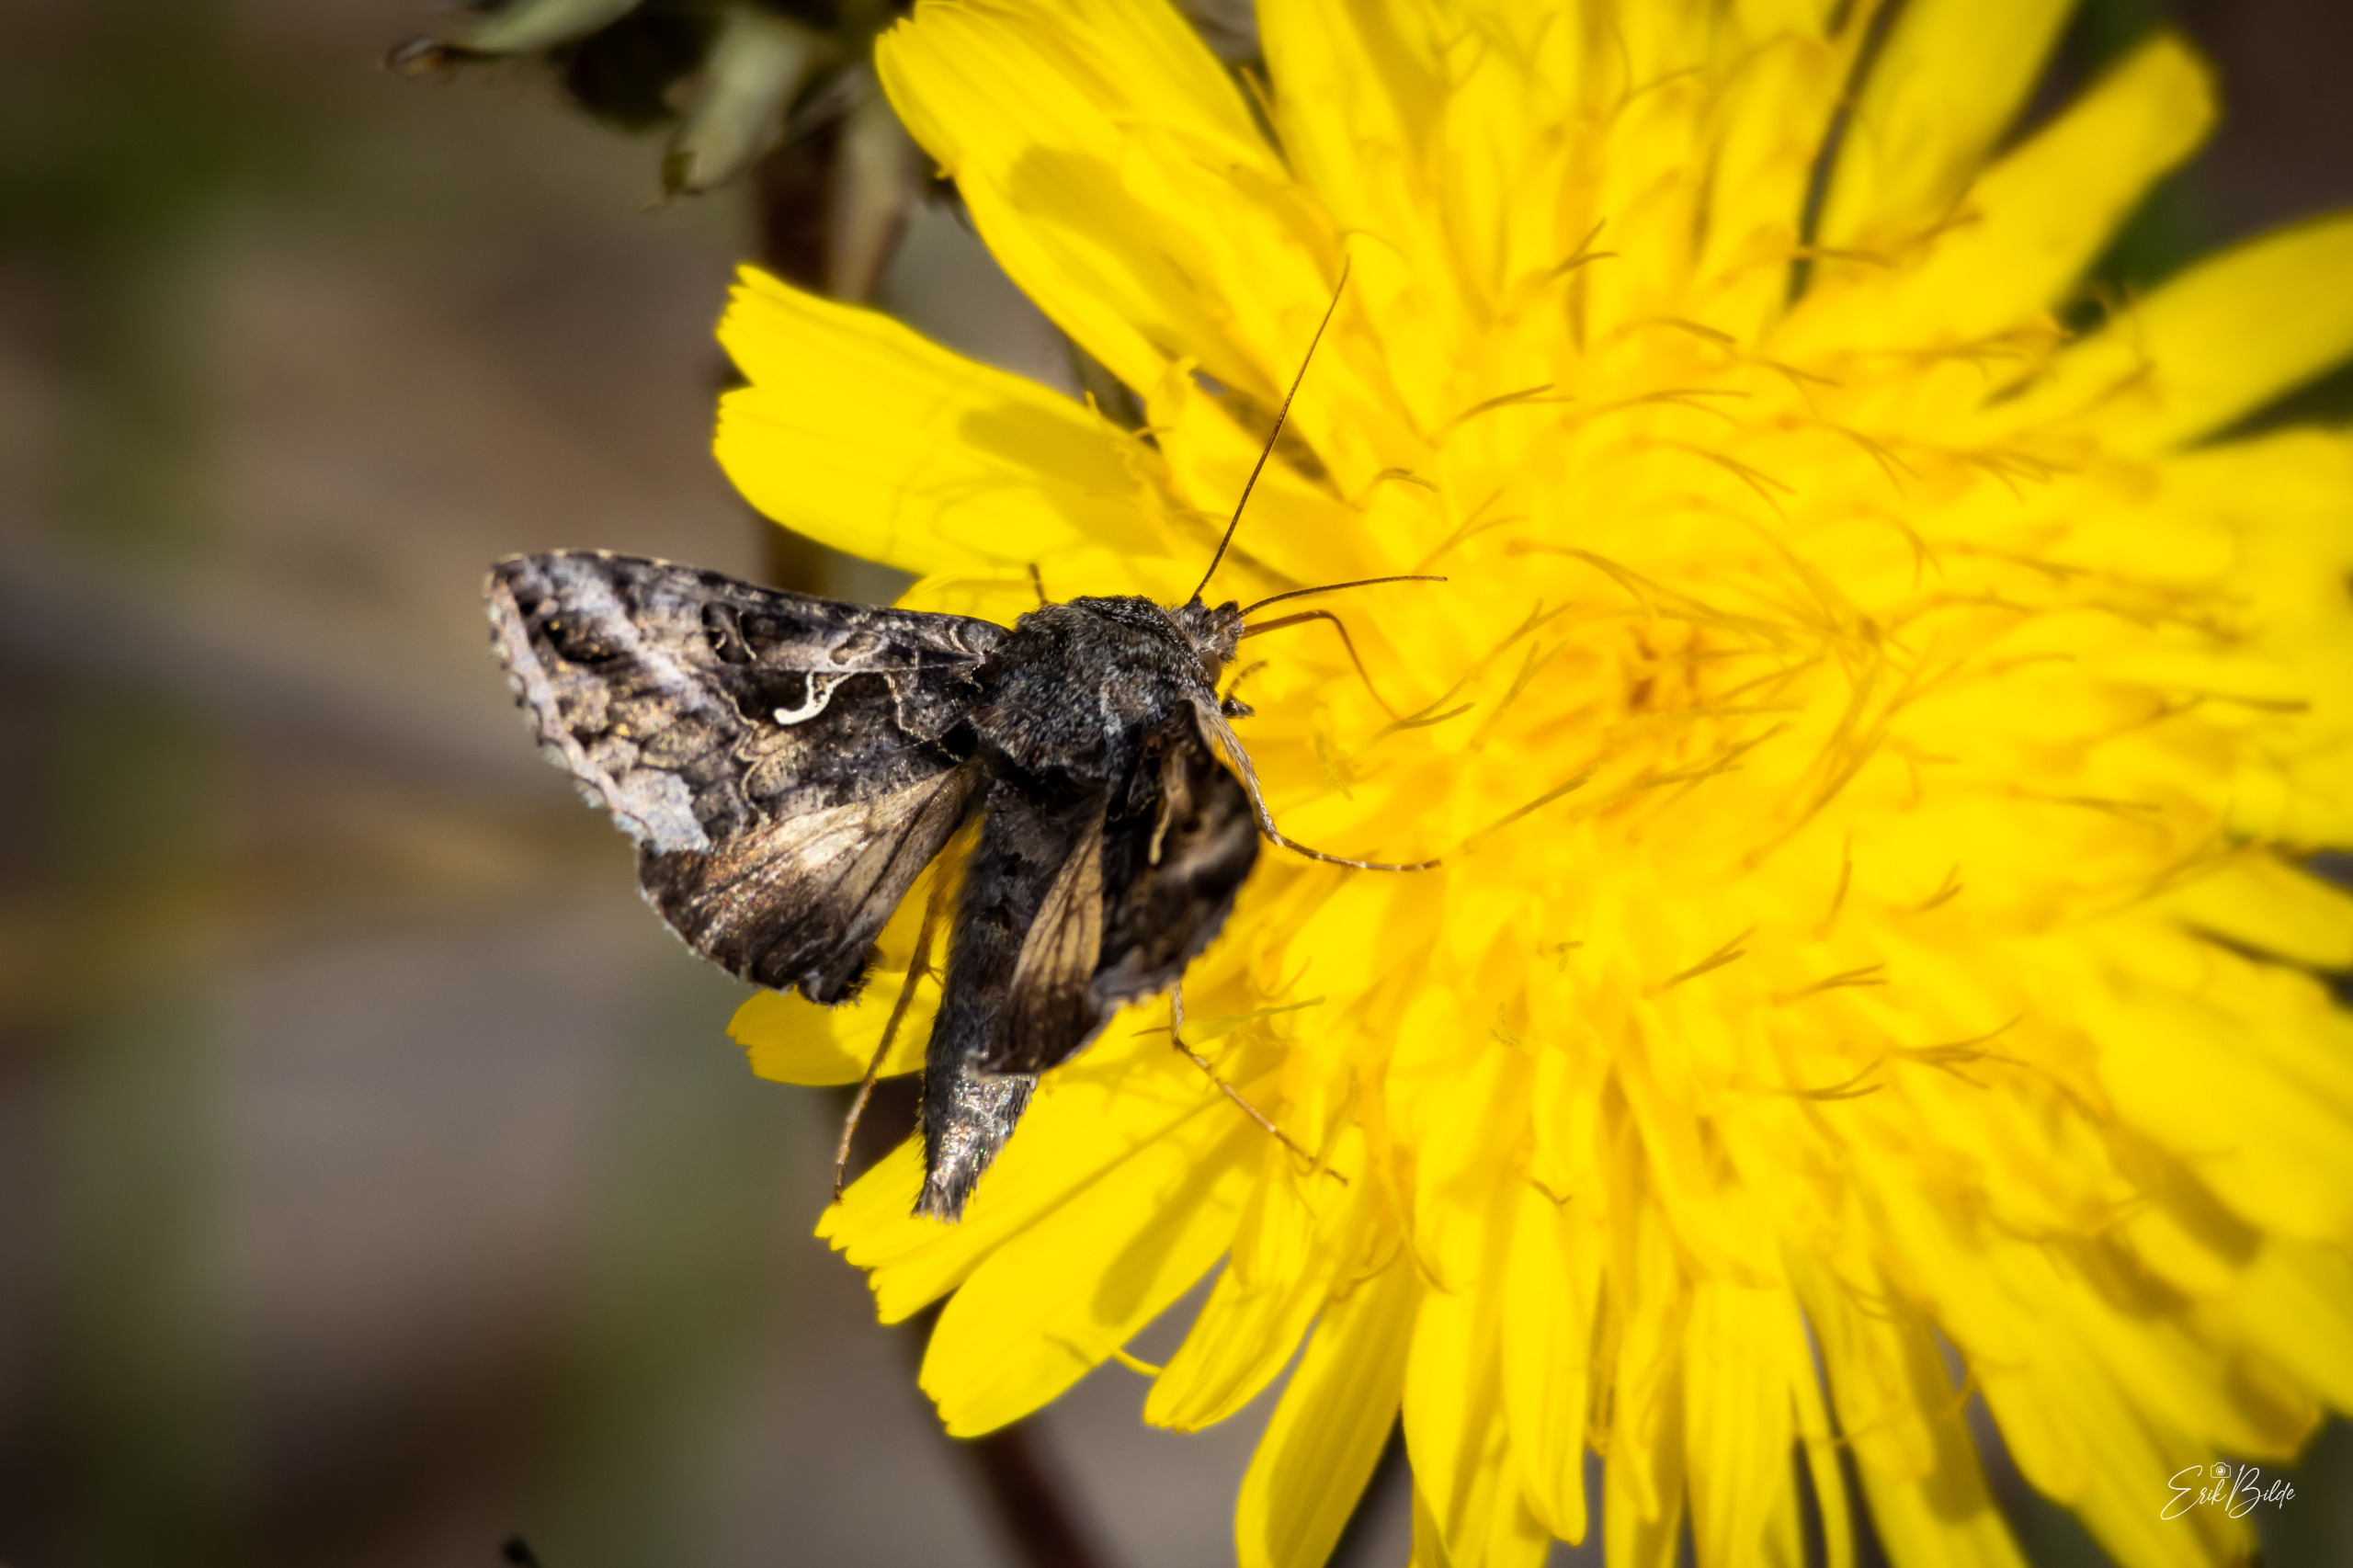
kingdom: Animalia
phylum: Arthropoda
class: Insecta
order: Lepidoptera
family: Noctuidae
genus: Autographa
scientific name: Autographa gamma
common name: Gammaugle
